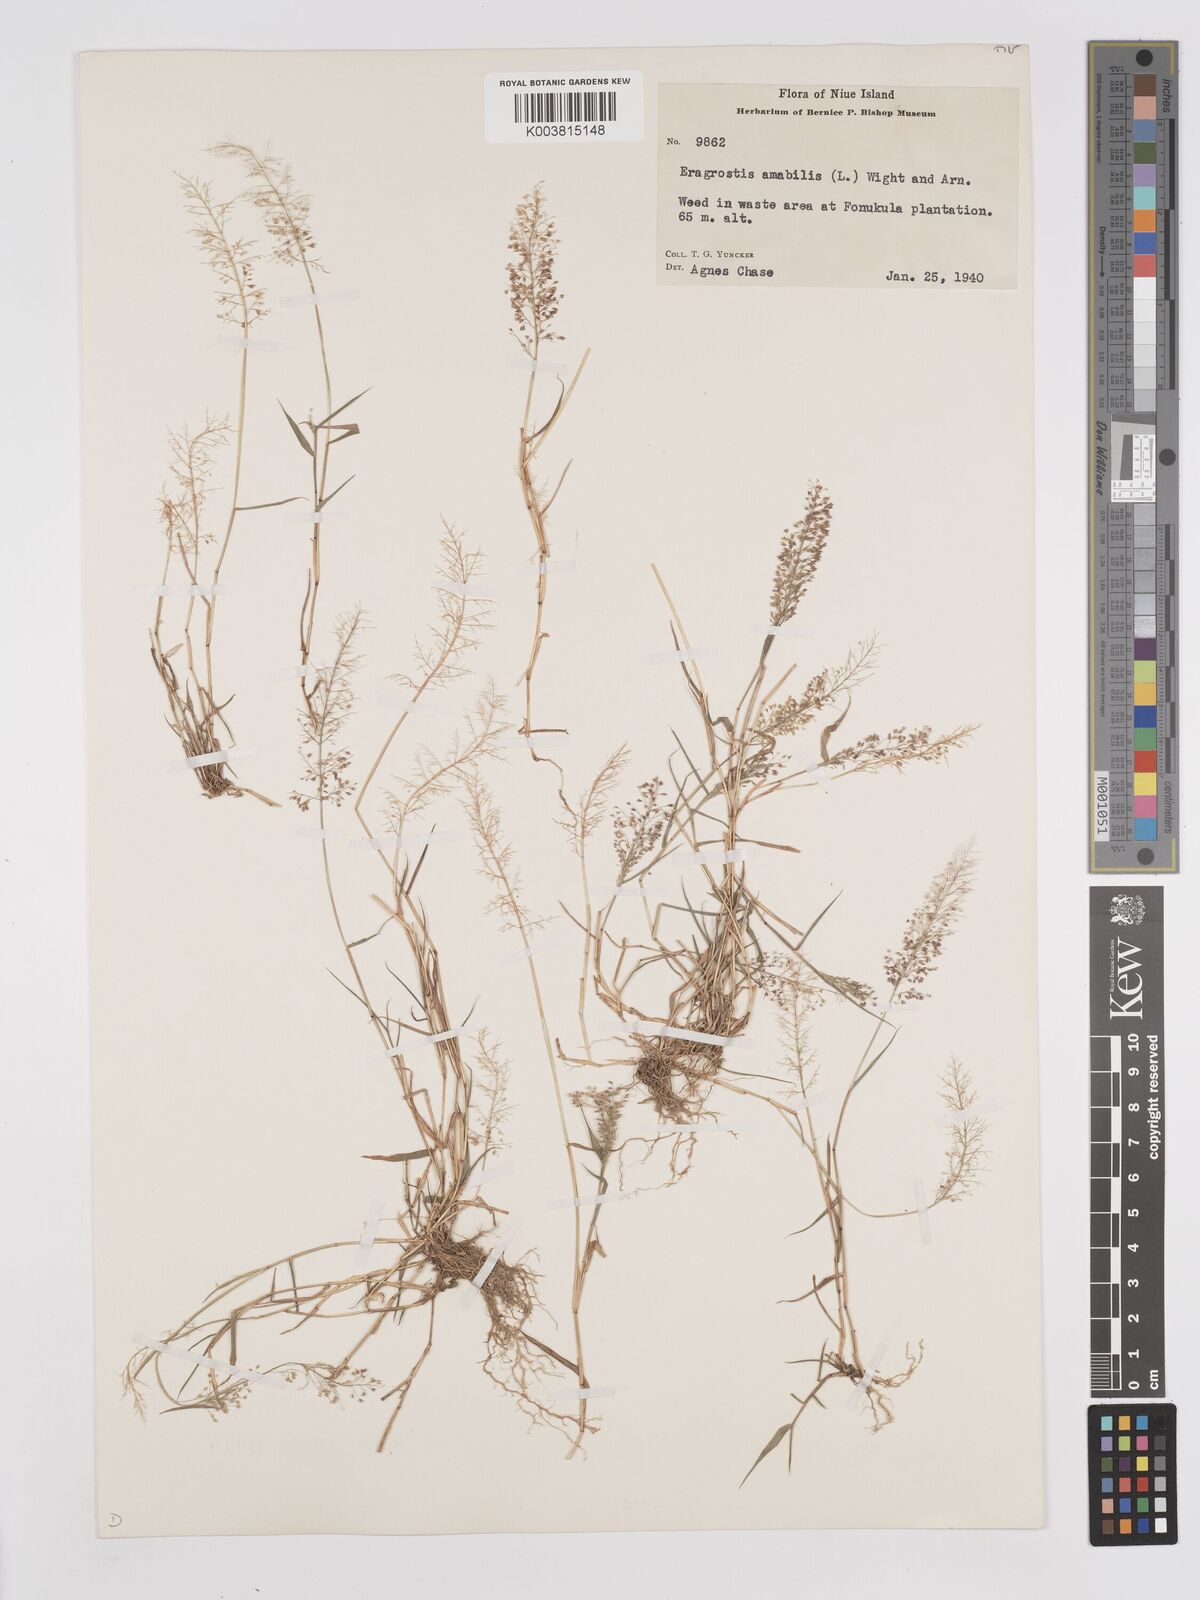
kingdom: Plantae
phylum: Tracheophyta
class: Liliopsida
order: Poales
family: Poaceae
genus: Eragrostis
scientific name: Eragrostis tenella
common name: Japanese lovegrass
